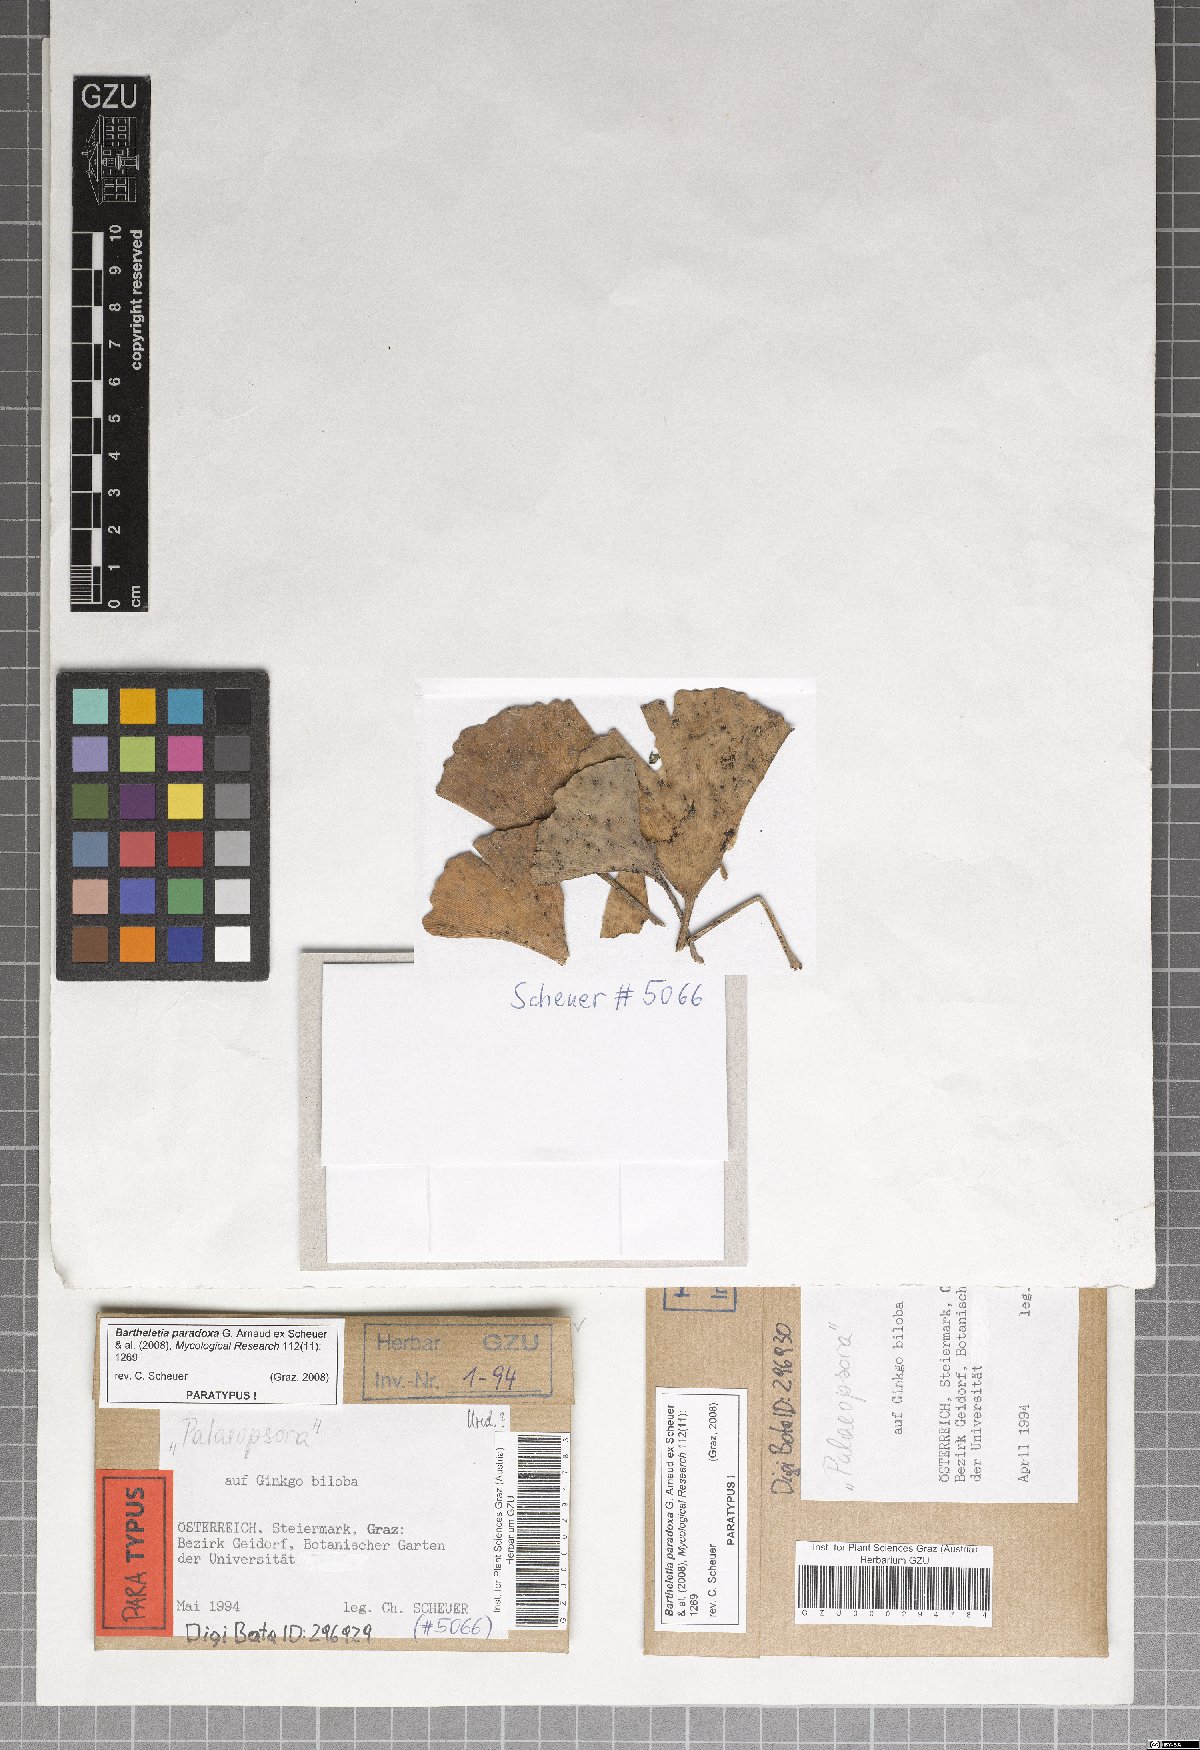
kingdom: Fungi
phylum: Basidiomycota
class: Wallemiomycetes
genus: Bartheletia
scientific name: Bartheletia paradoxa
